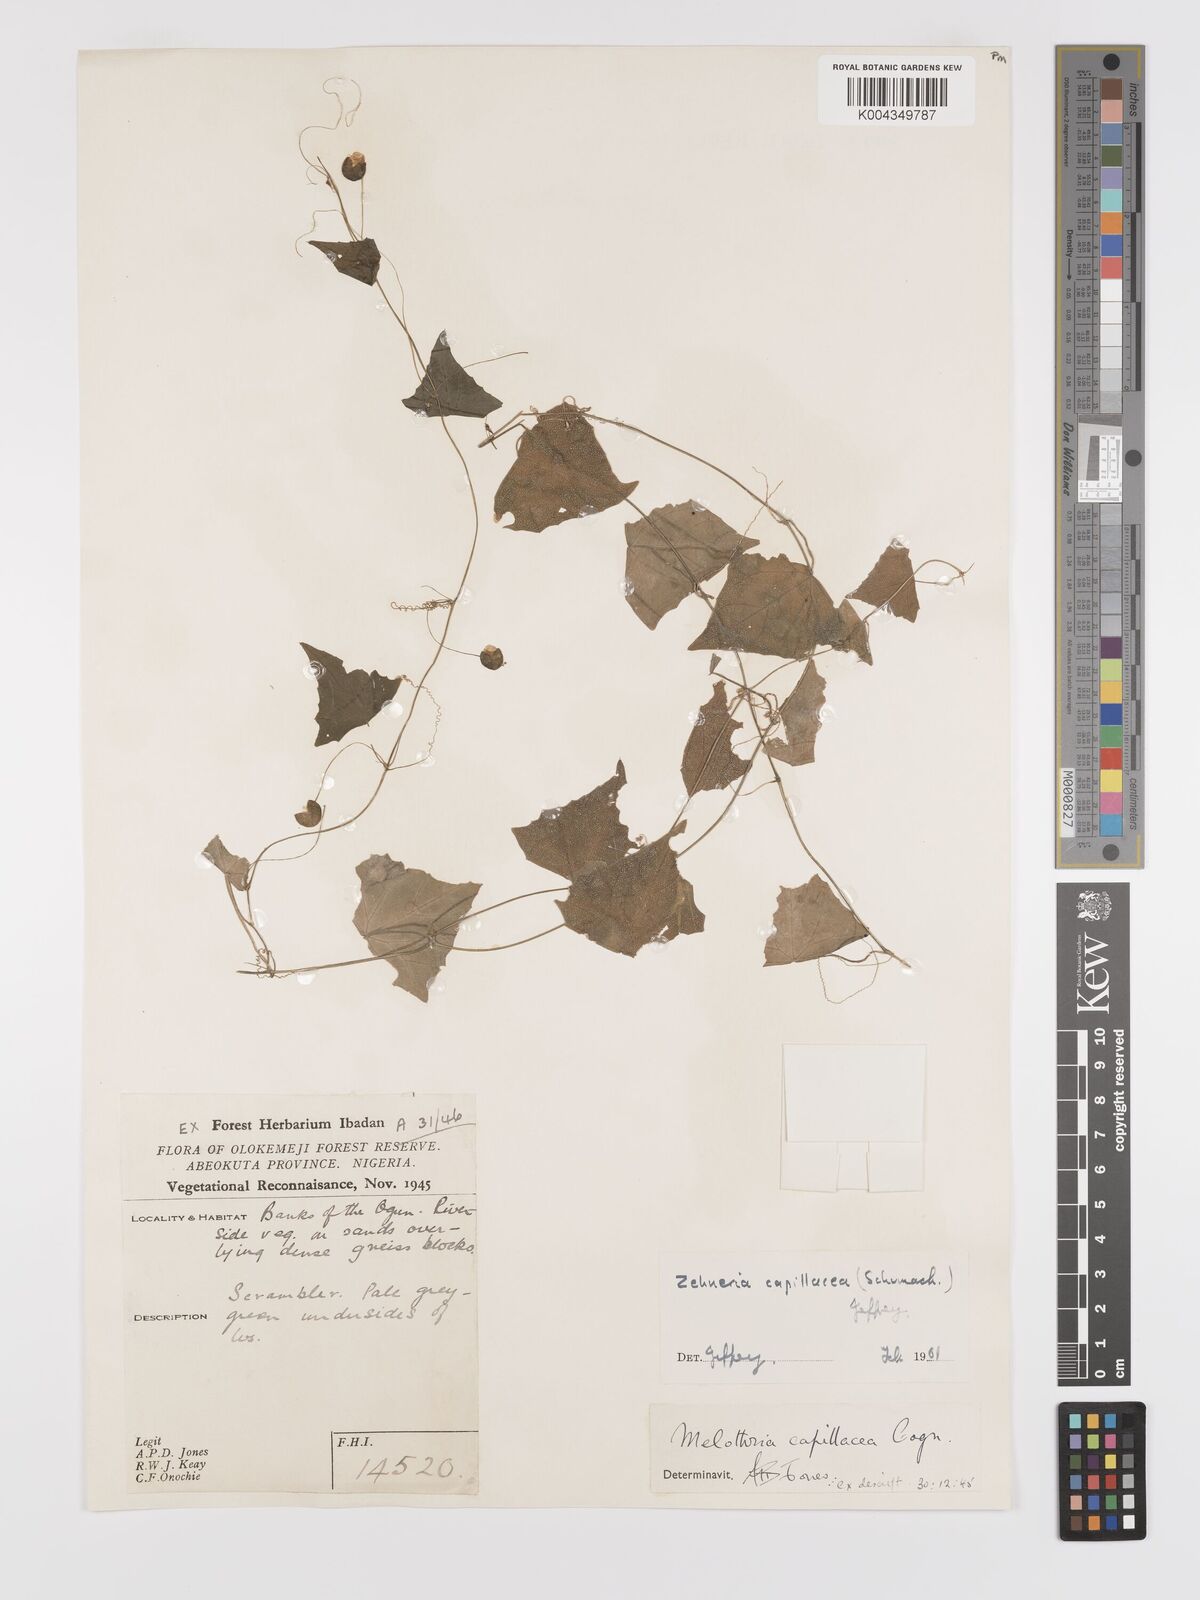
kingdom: Plantae
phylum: Tracheophyta
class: Magnoliopsida
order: Cucurbitales
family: Cucurbitaceae
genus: Zehneria
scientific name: Zehneria capillacea
